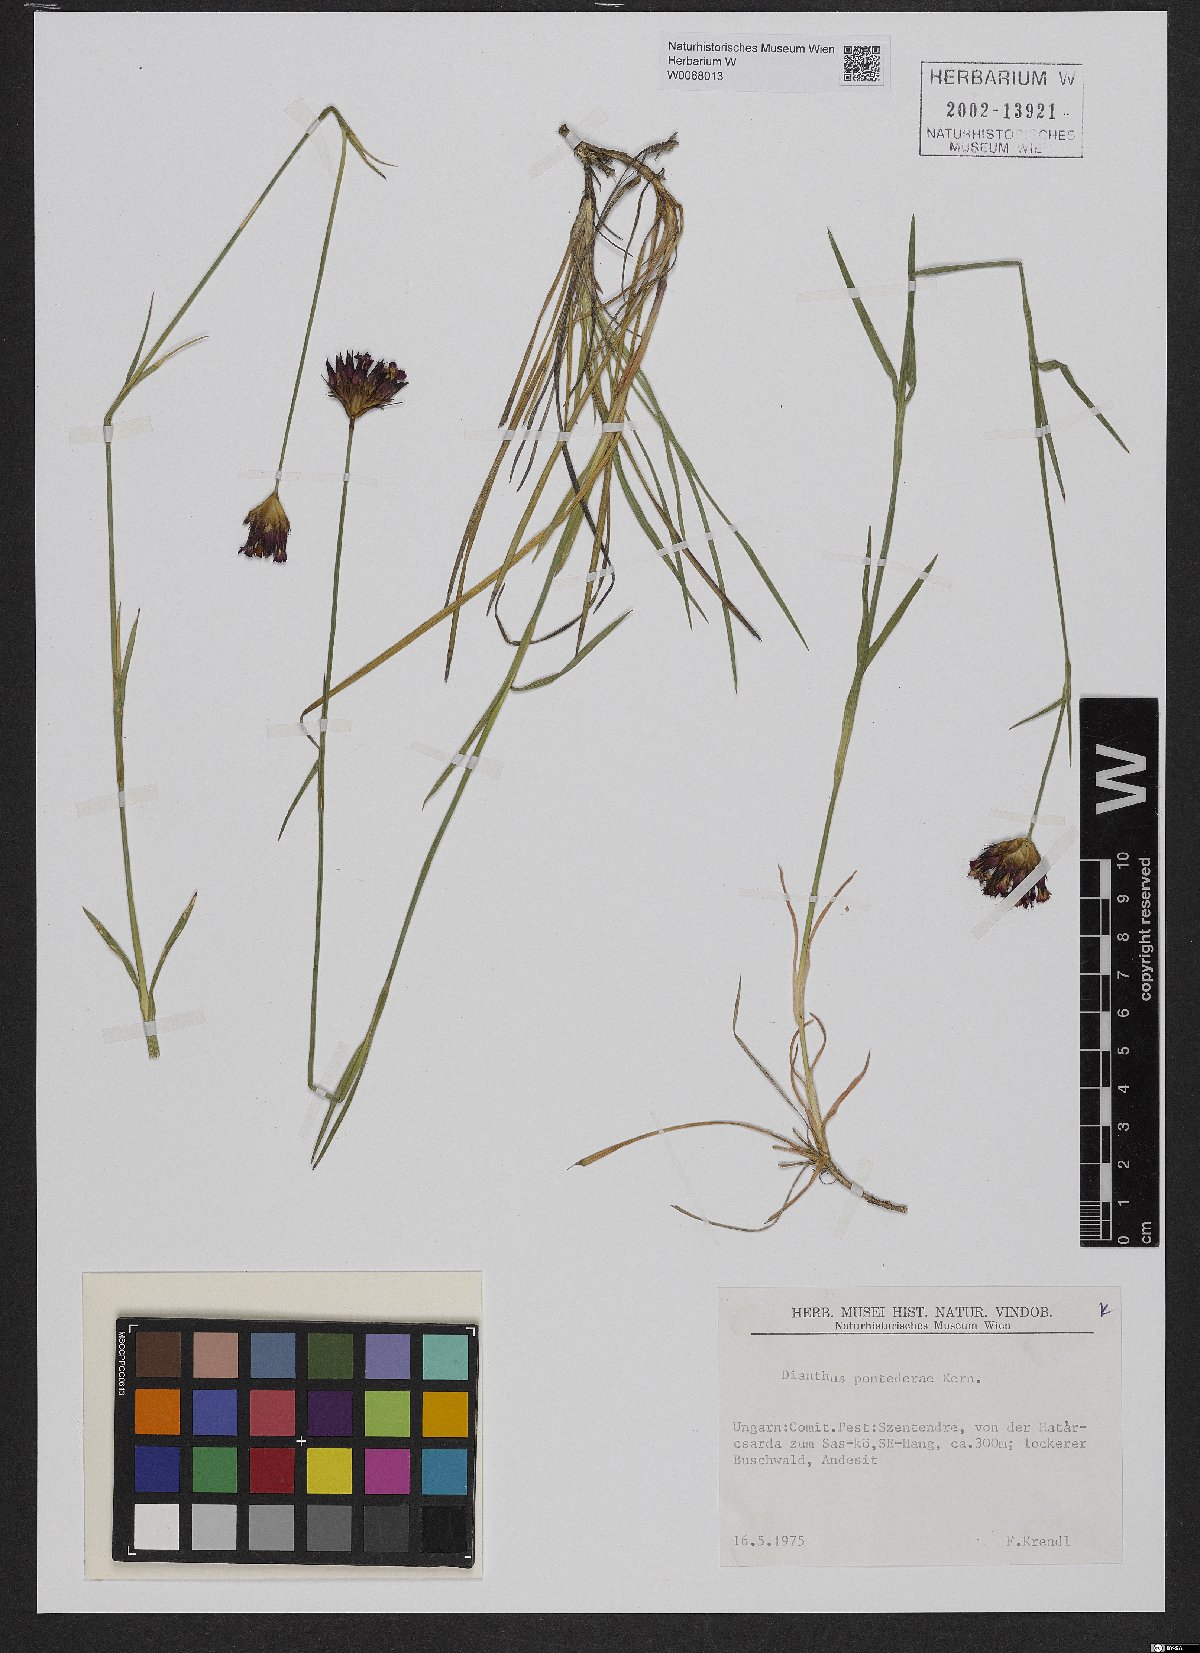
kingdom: Plantae
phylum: Tracheophyta
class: Magnoliopsida
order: Caryophyllales
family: Caryophyllaceae
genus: Dianthus
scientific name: Dianthus pontederae
